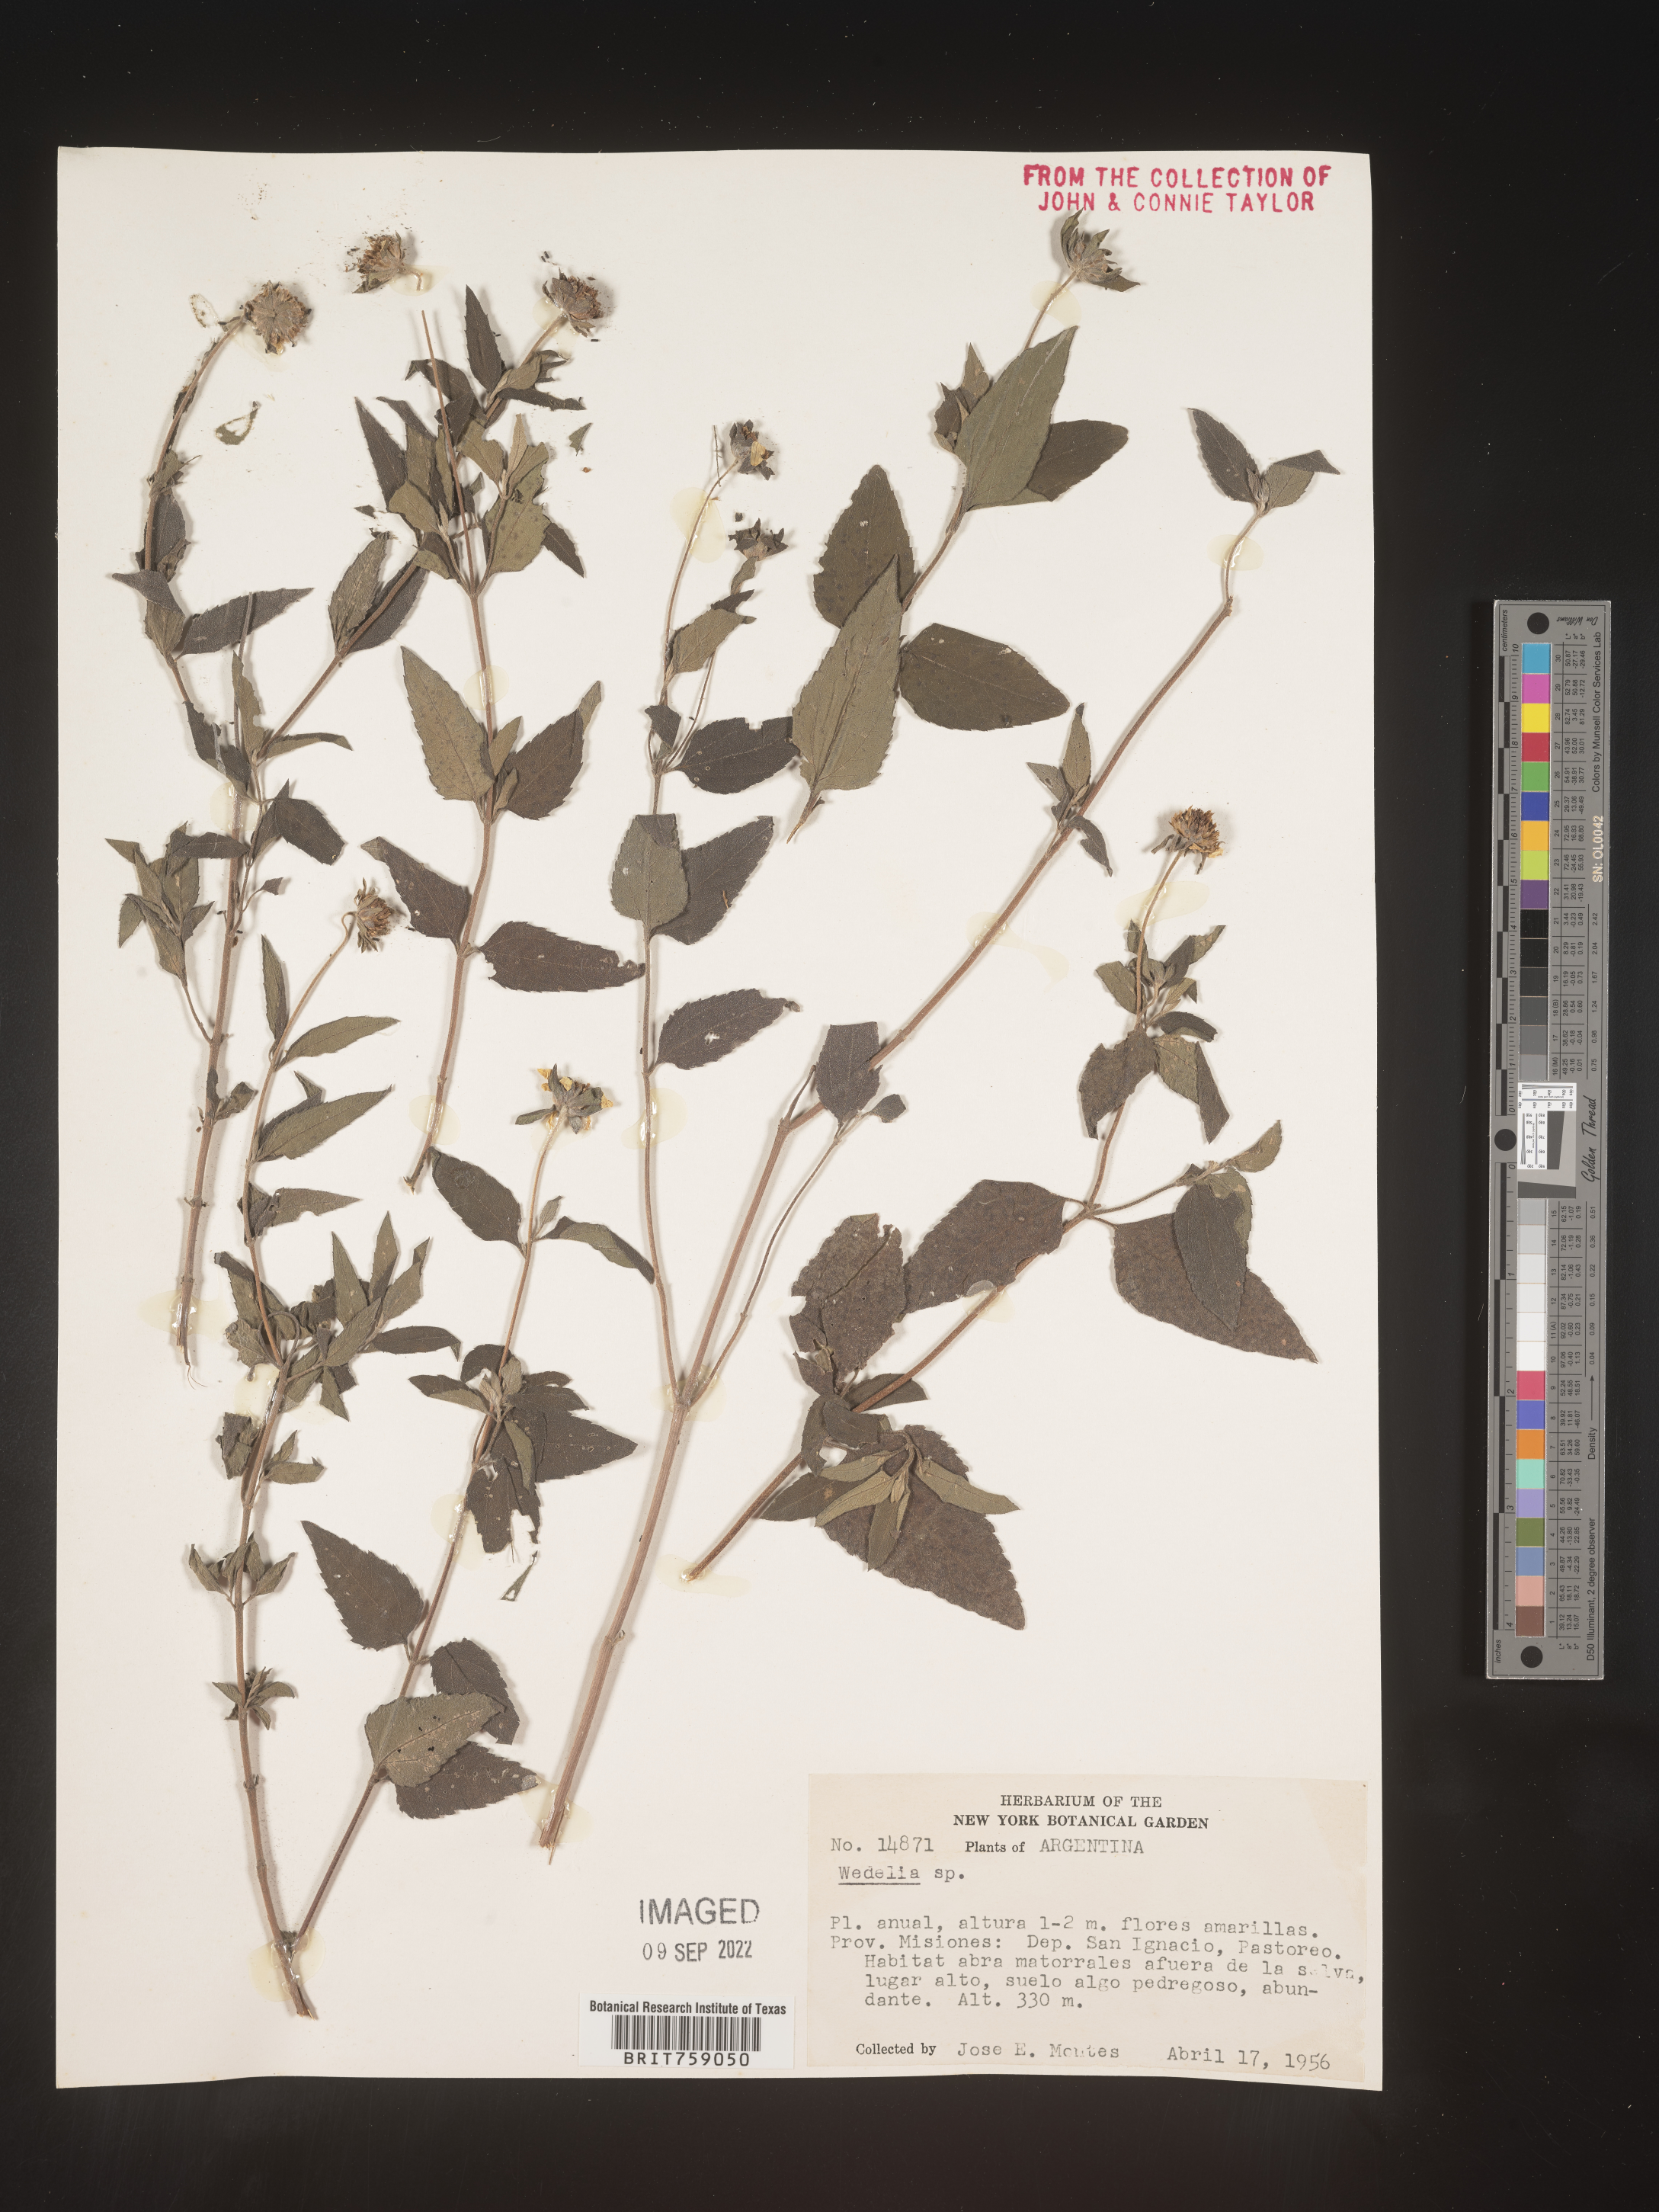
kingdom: Plantae
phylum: Tracheophyta
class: Magnoliopsida
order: Asterales
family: Asteraceae
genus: Wedelia
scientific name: Wedelia
